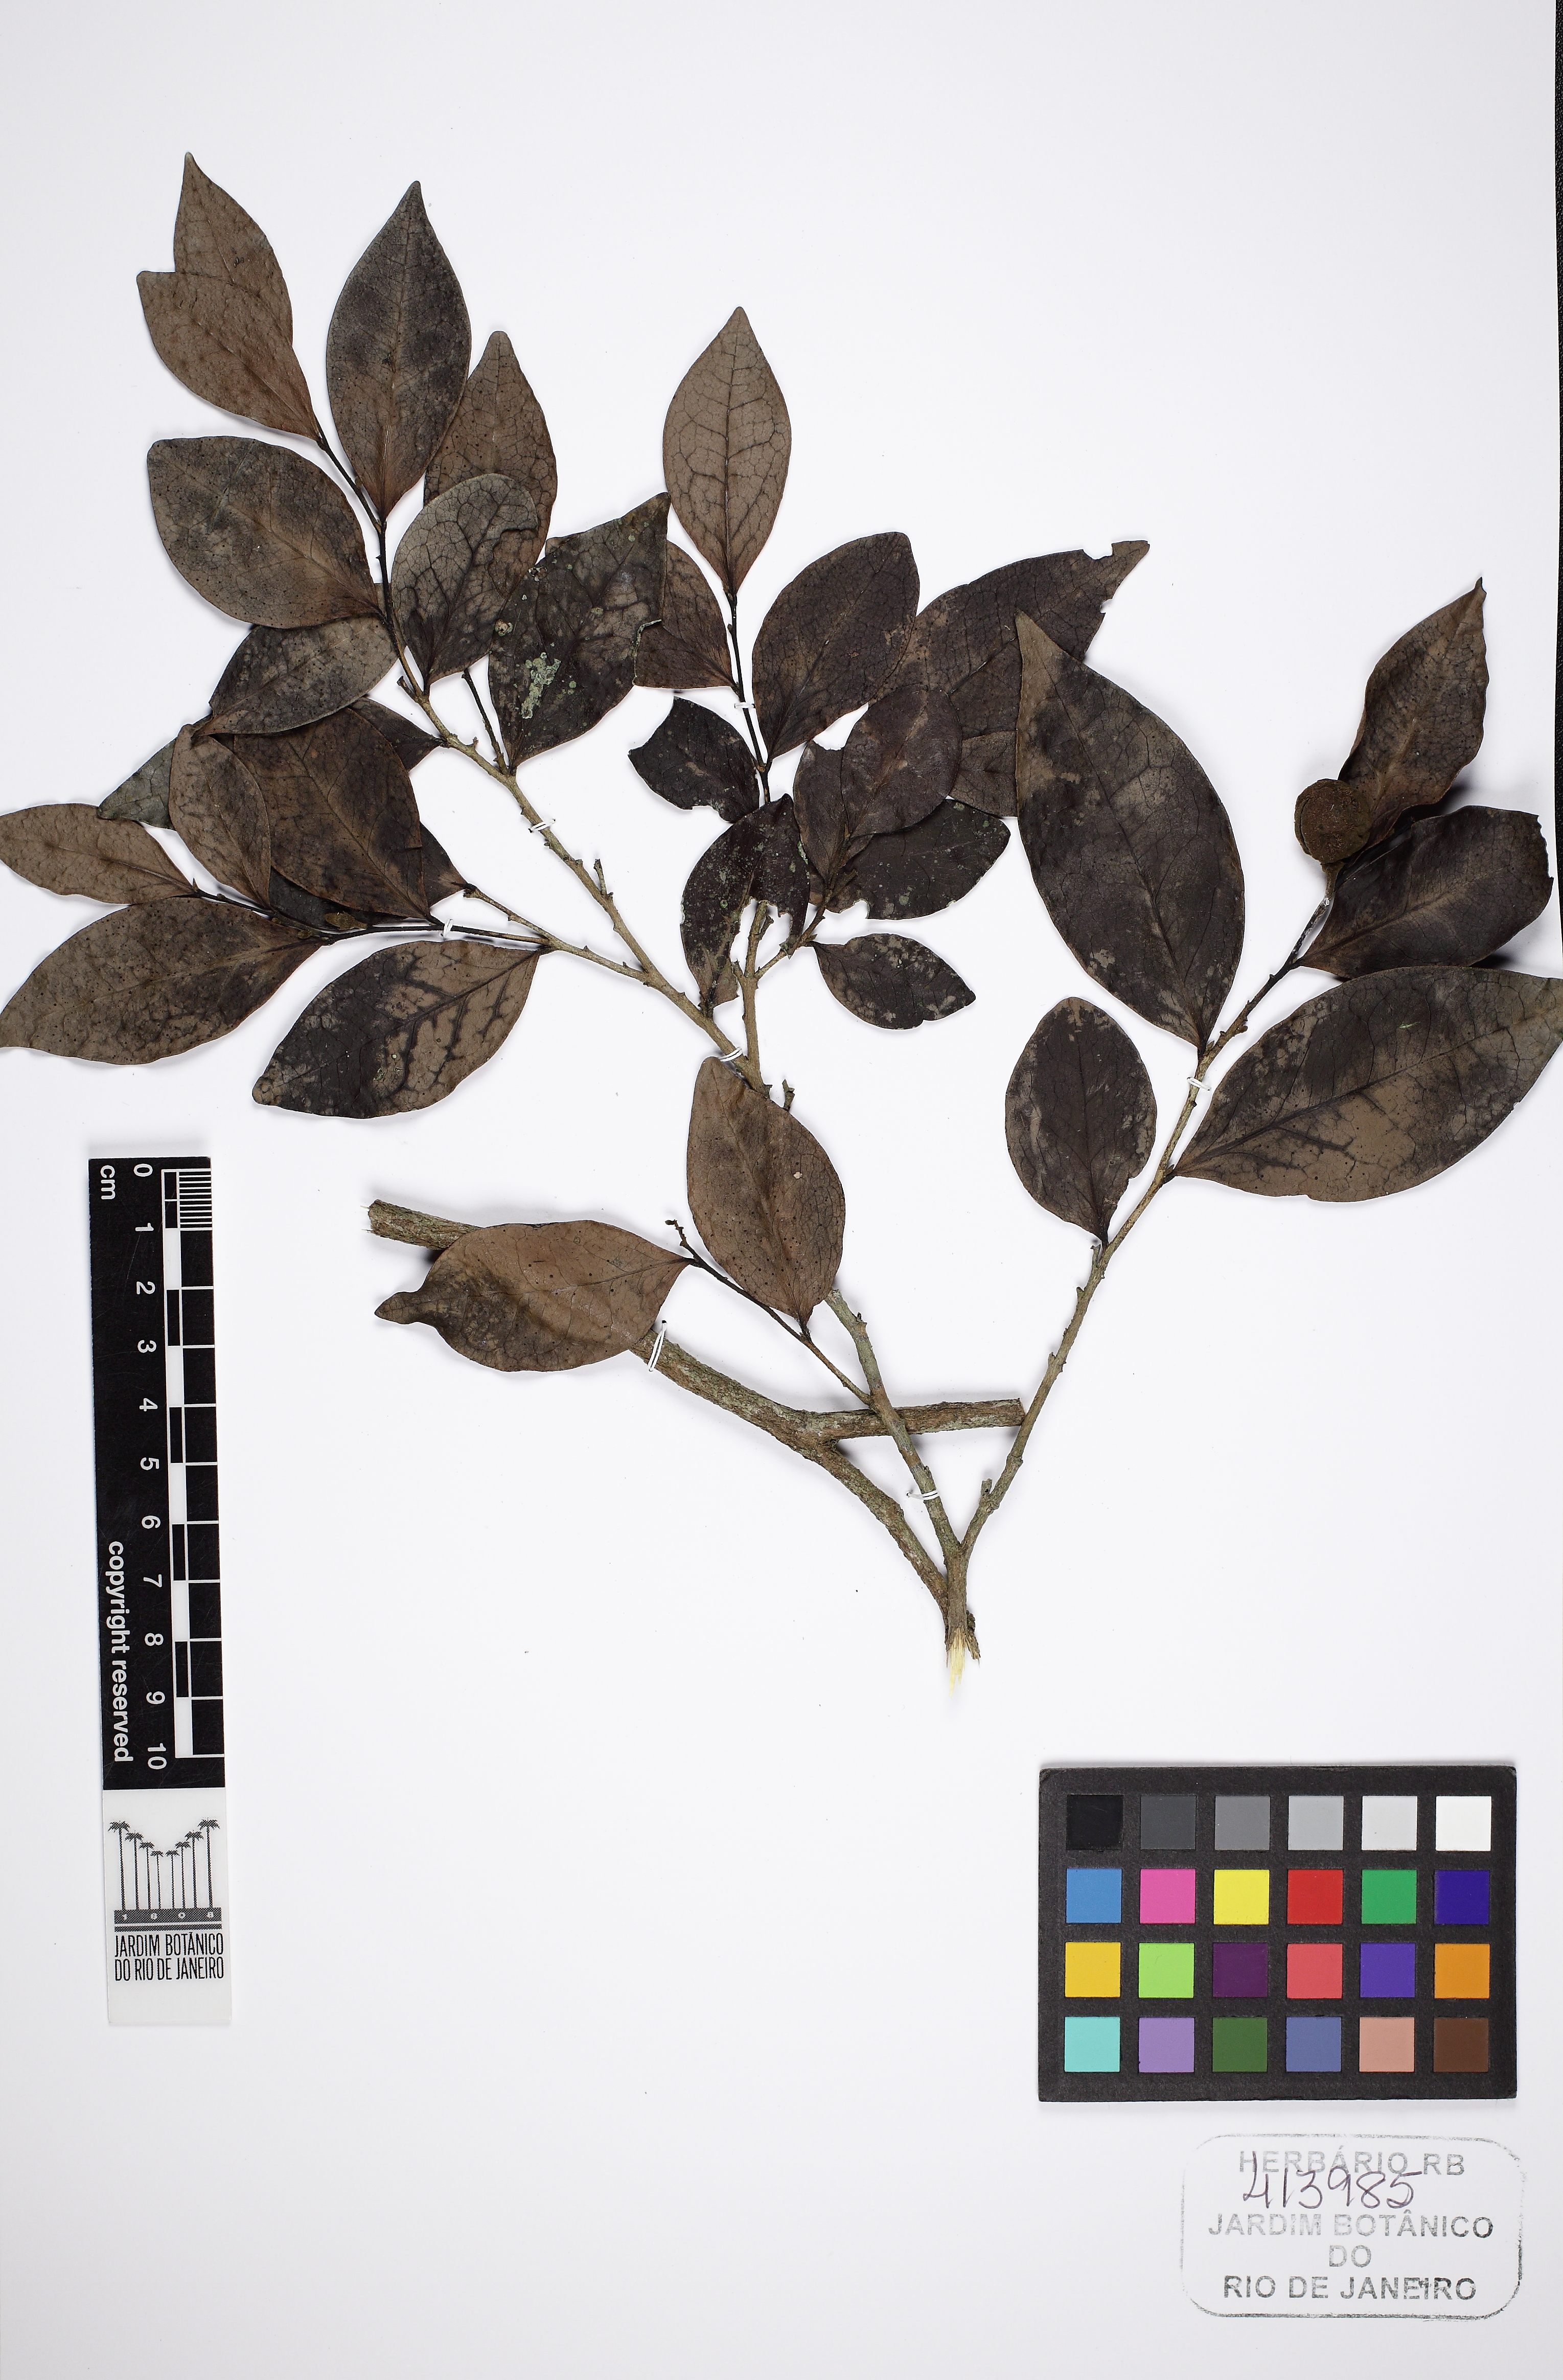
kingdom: Plantae
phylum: Tracheophyta
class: Magnoliopsida
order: Magnoliales
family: Annonaceae
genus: Hornschuchia
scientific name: Hornschuchia alba
